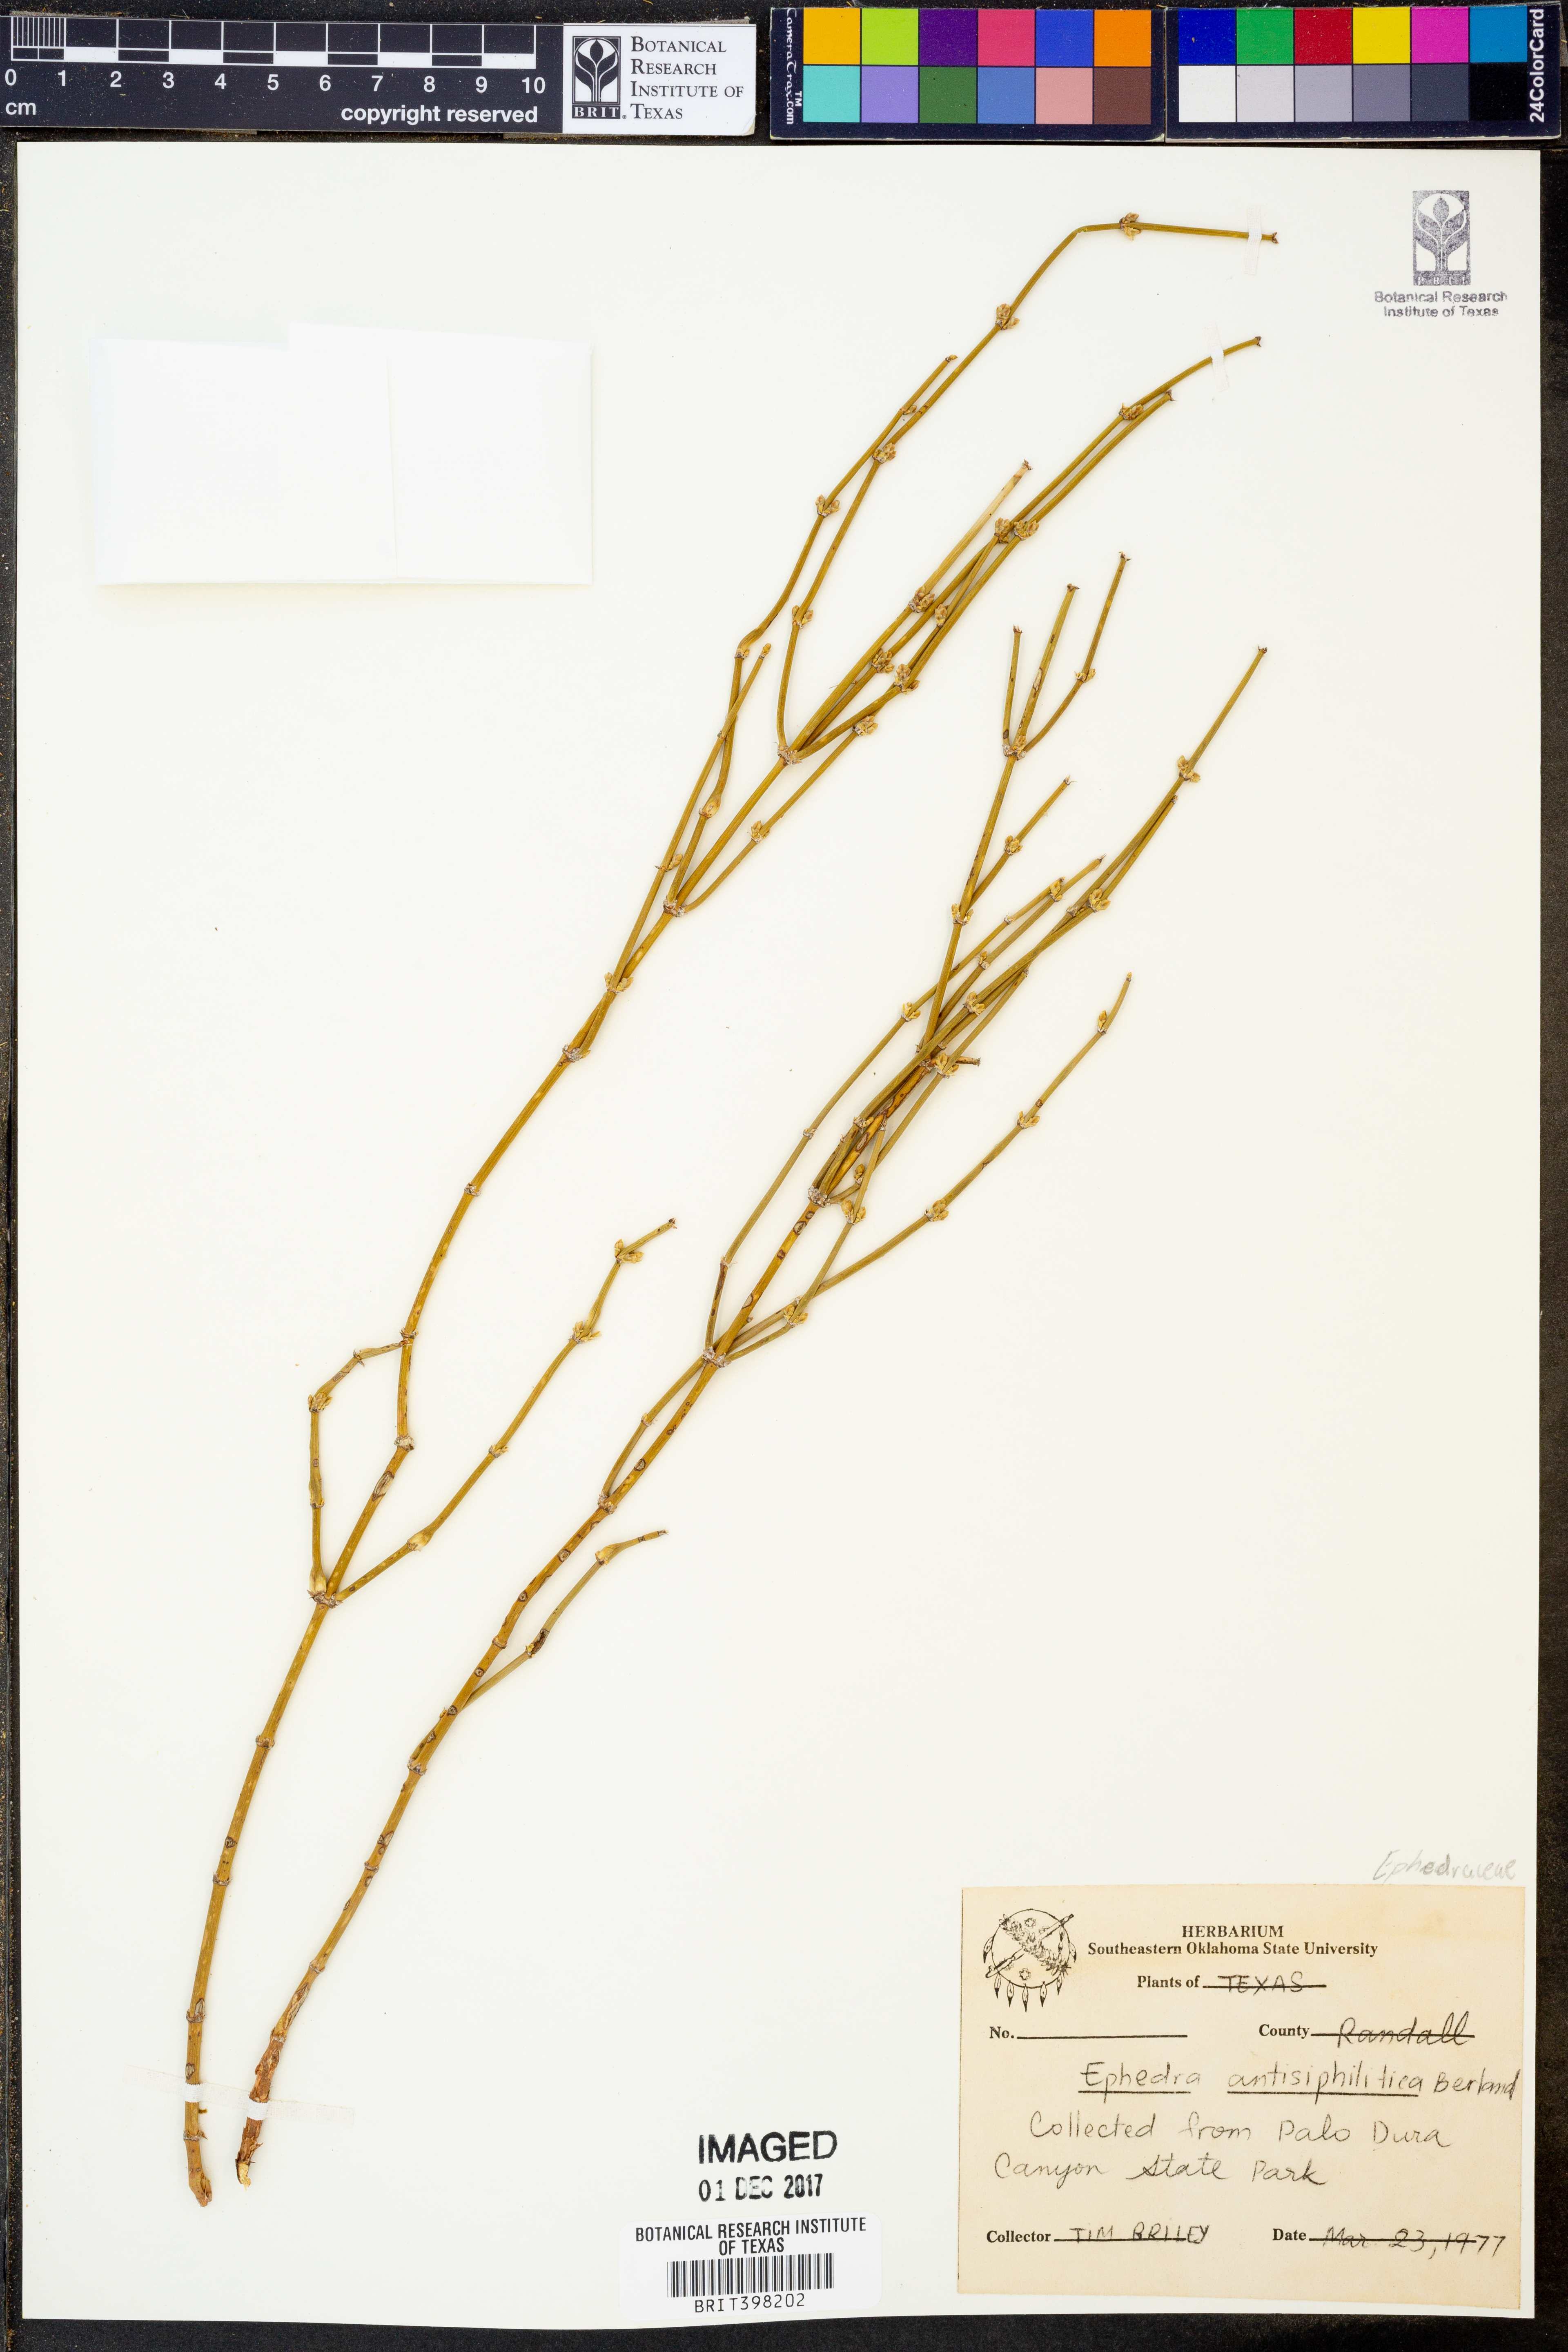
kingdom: Plantae
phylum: Tracheophyta
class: Gnetopsida
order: Ephedrales
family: Ephedraceae
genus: Ephedra
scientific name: Ephedra antisyphilitica
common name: Clipweed
